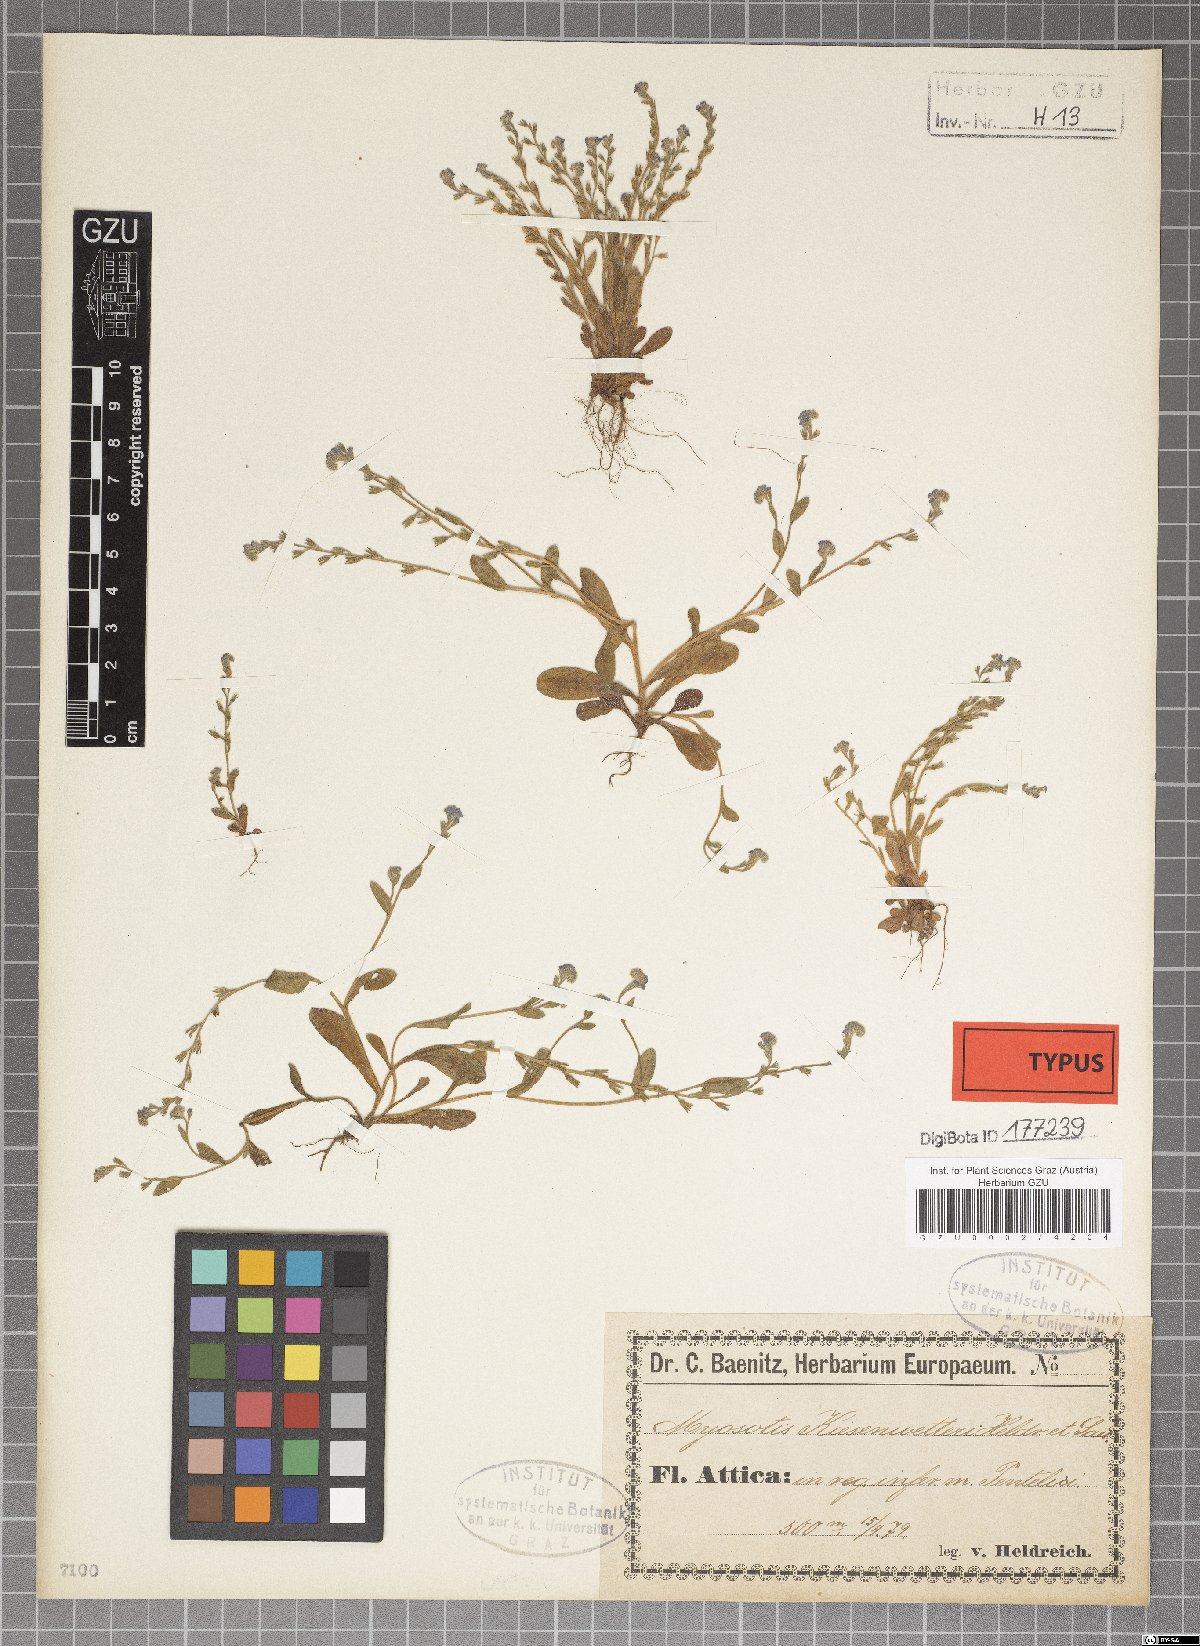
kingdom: Plantae
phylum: Tracheophyta
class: Magnoliopsida
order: Boraginales
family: Boraginaceae
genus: Myosotis
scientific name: Myosotis incrassata
